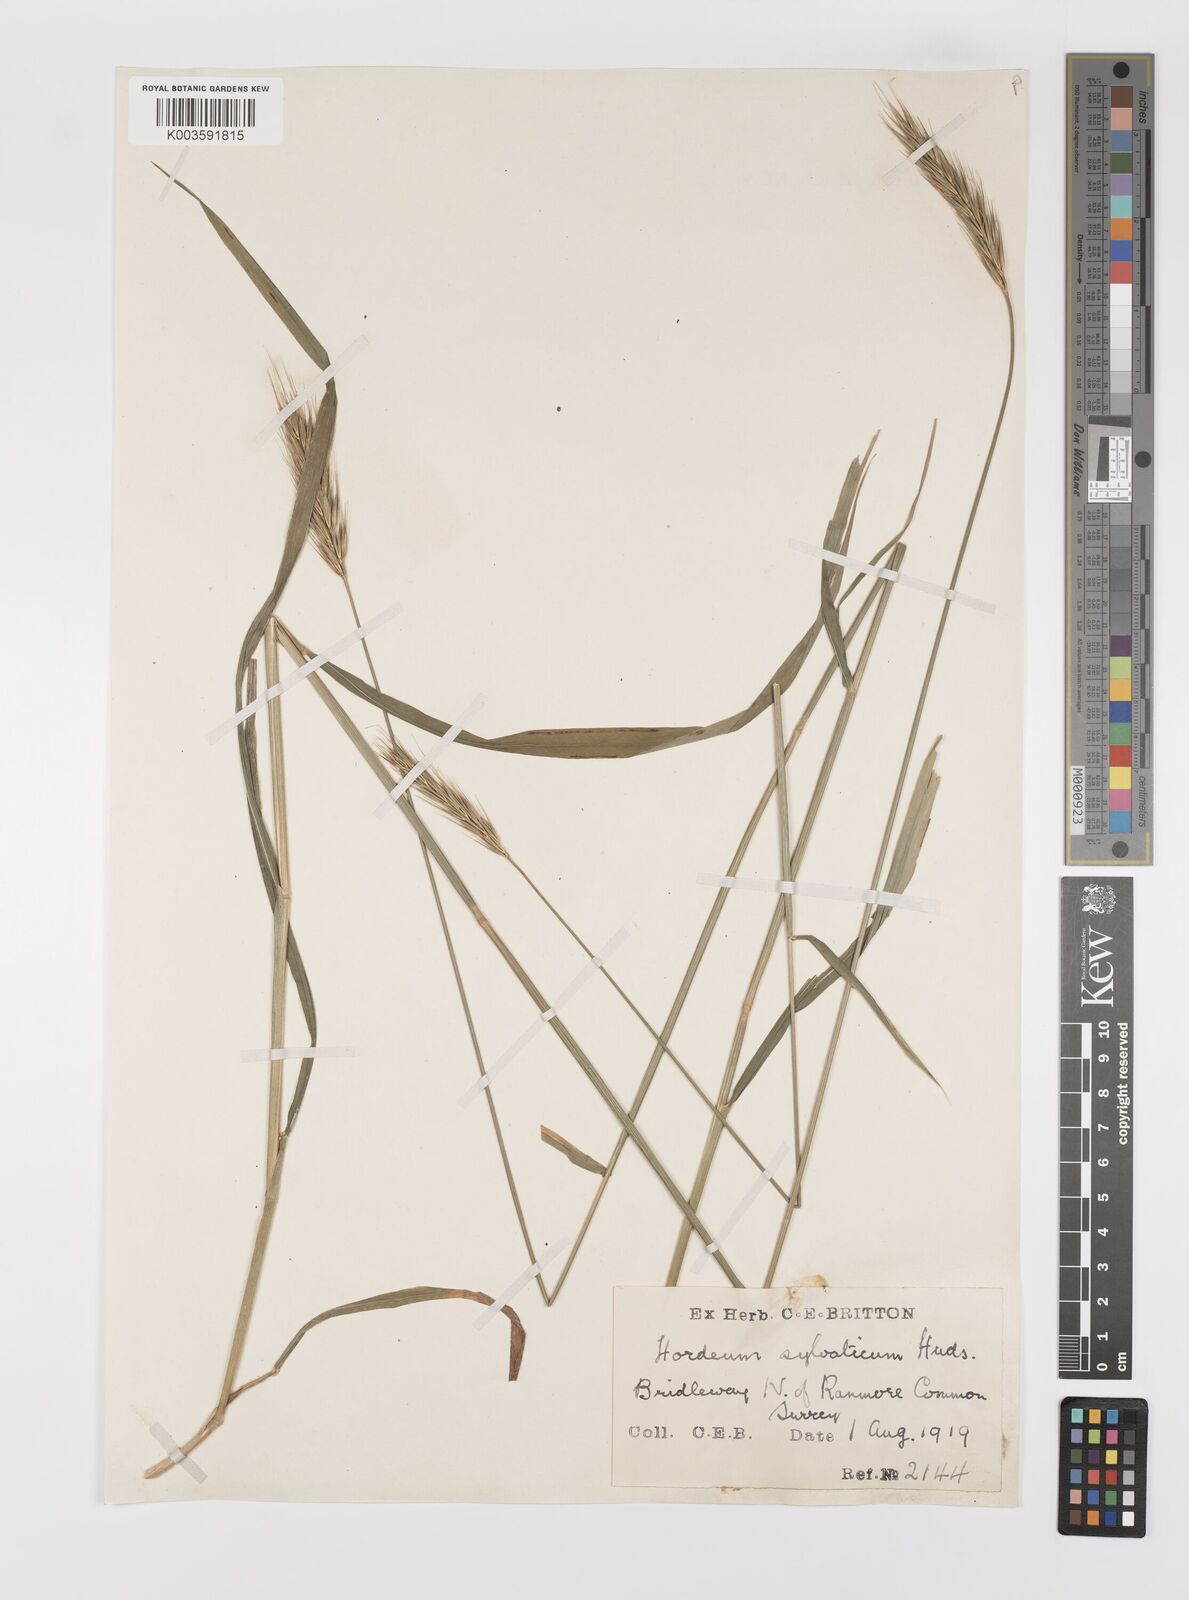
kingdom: Plantae
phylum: Tracheophyta
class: Liliopsida
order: Poales
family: Poaceae
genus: Hordelymus
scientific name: Hordelymus europaeus
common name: Wood-barley
